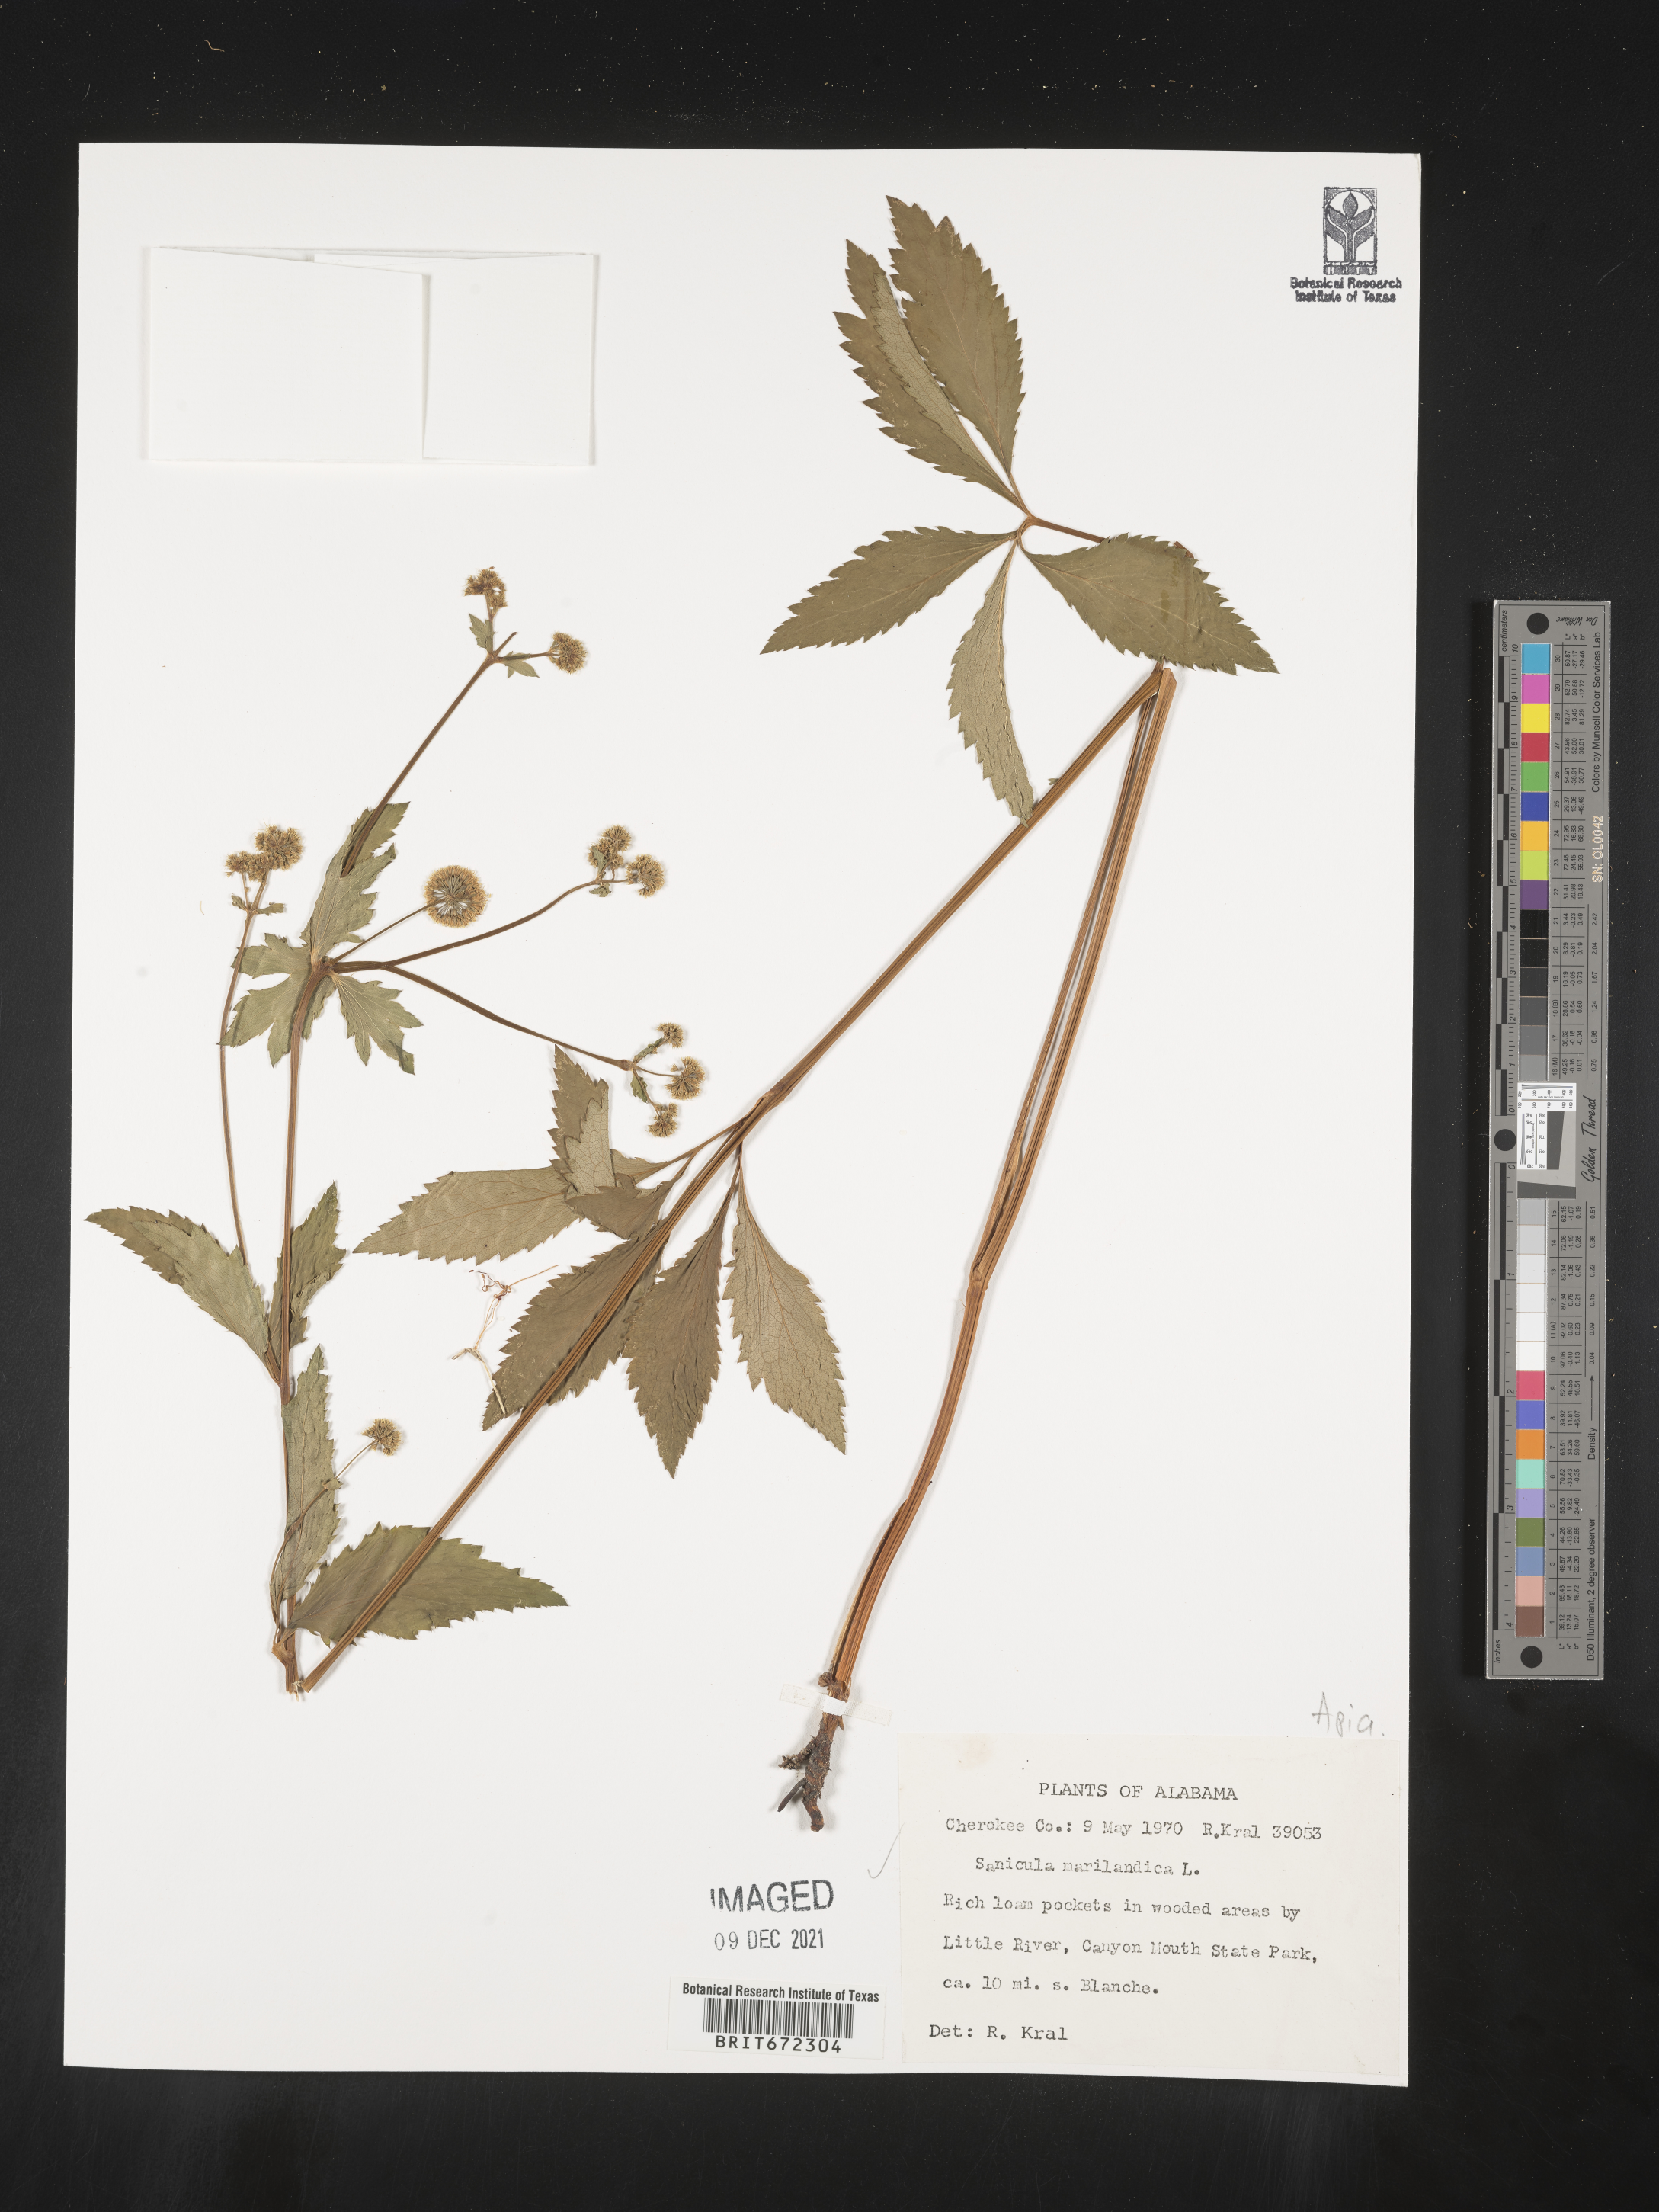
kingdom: Plantae
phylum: Tracheophyta
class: Magnoliopsida
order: Apiales
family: Apiaceae
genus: Sanicula
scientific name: Sanicula marilandica
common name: Black snakeroot
